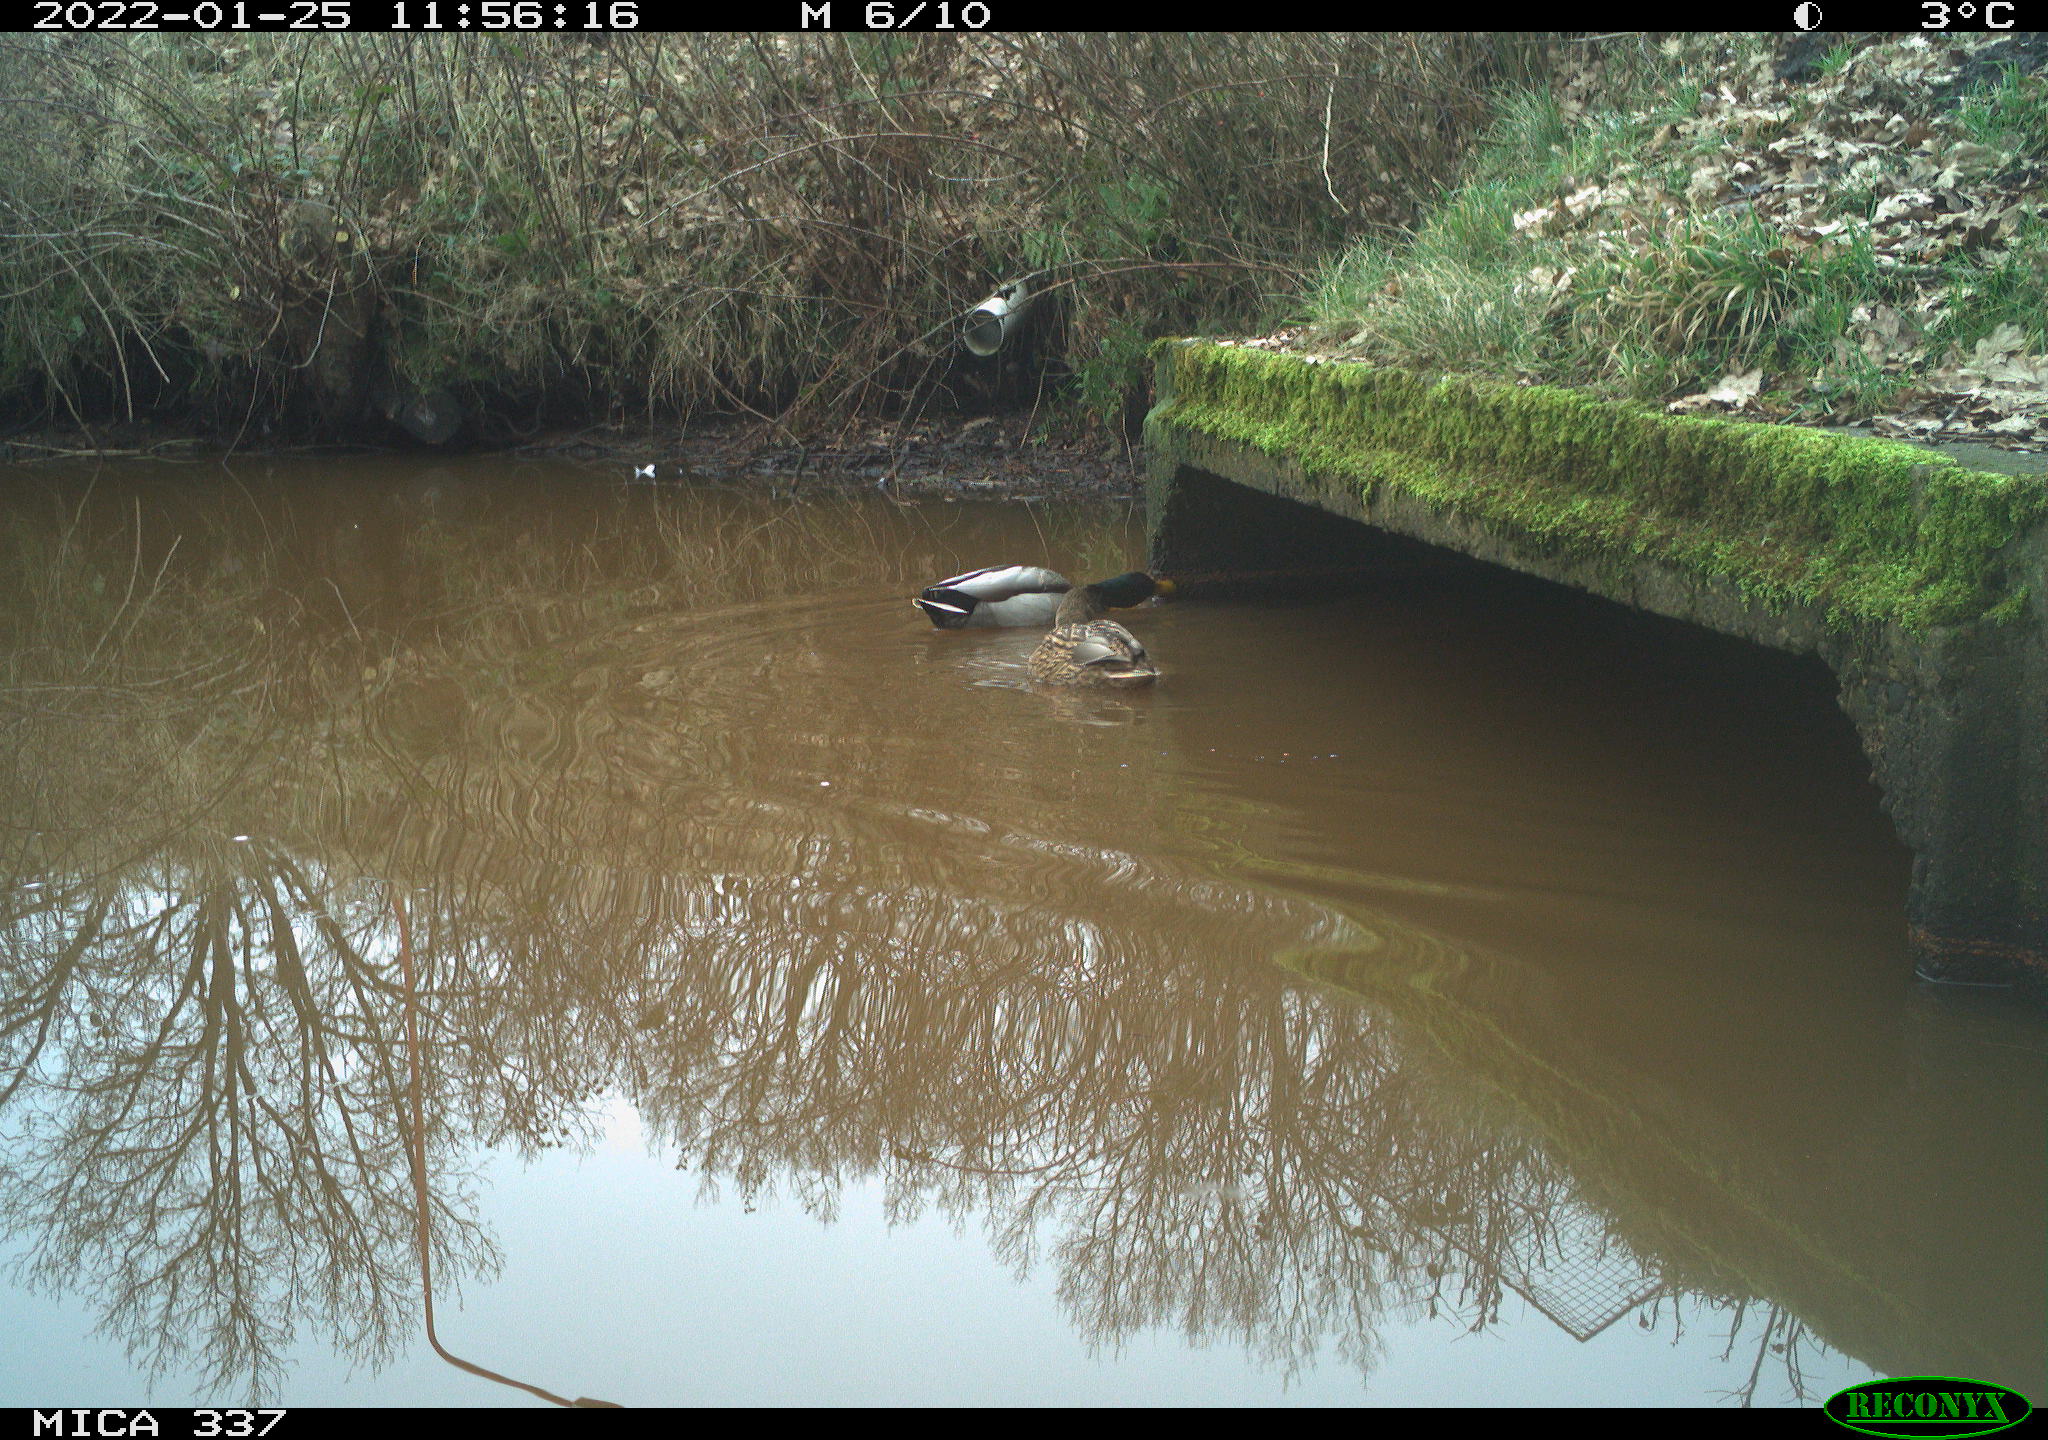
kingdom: Animalia
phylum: Chordata
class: Aves
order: Anseriformes
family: Anatidae
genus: Anas
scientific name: Anas platyrhynchos
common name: Mallard
